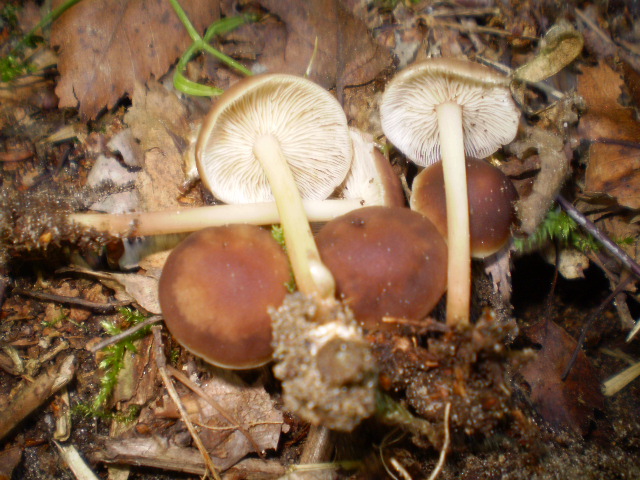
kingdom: Fungi
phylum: Basidiomycota
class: Agaricomycetes
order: Agaricales
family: Omphalotaceae
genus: Gymnopus
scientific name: Gymnopus ocior
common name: mørk fladhat
